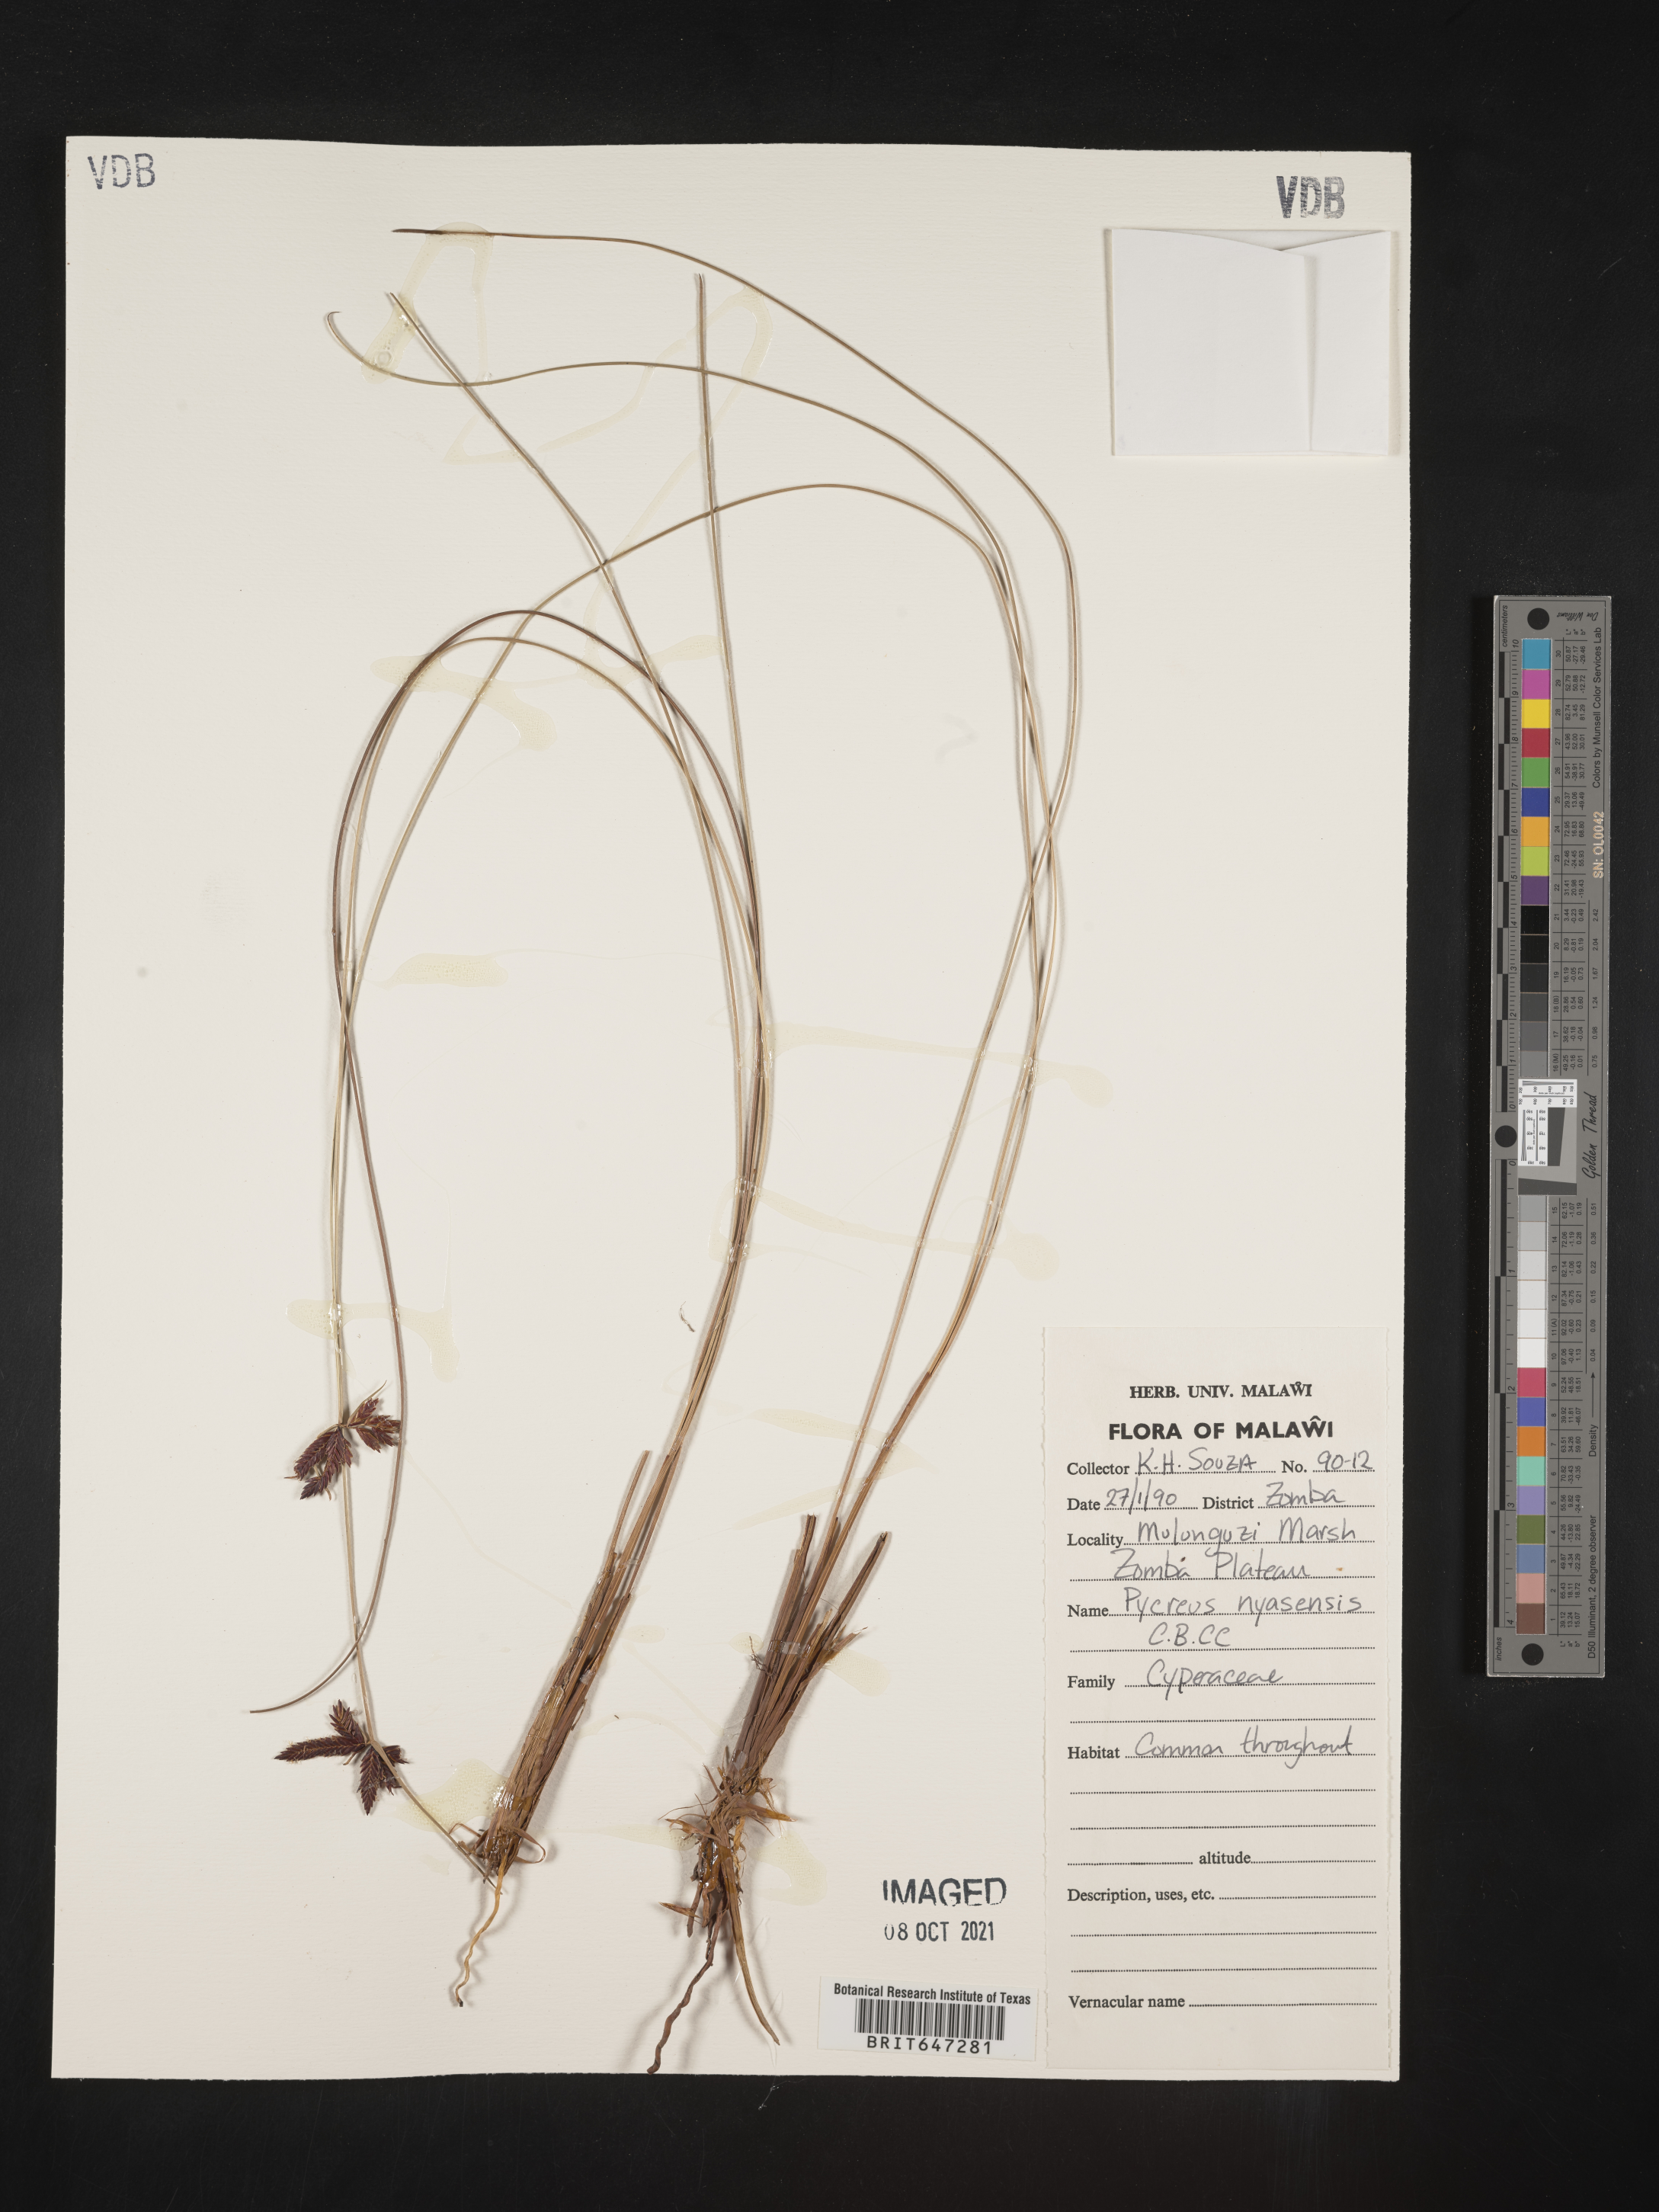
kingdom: Plantae
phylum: Tracheophyta
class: Liliopsida
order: Poales
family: Cyperaceae
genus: Cyperus
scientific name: Cyperus nigricans
